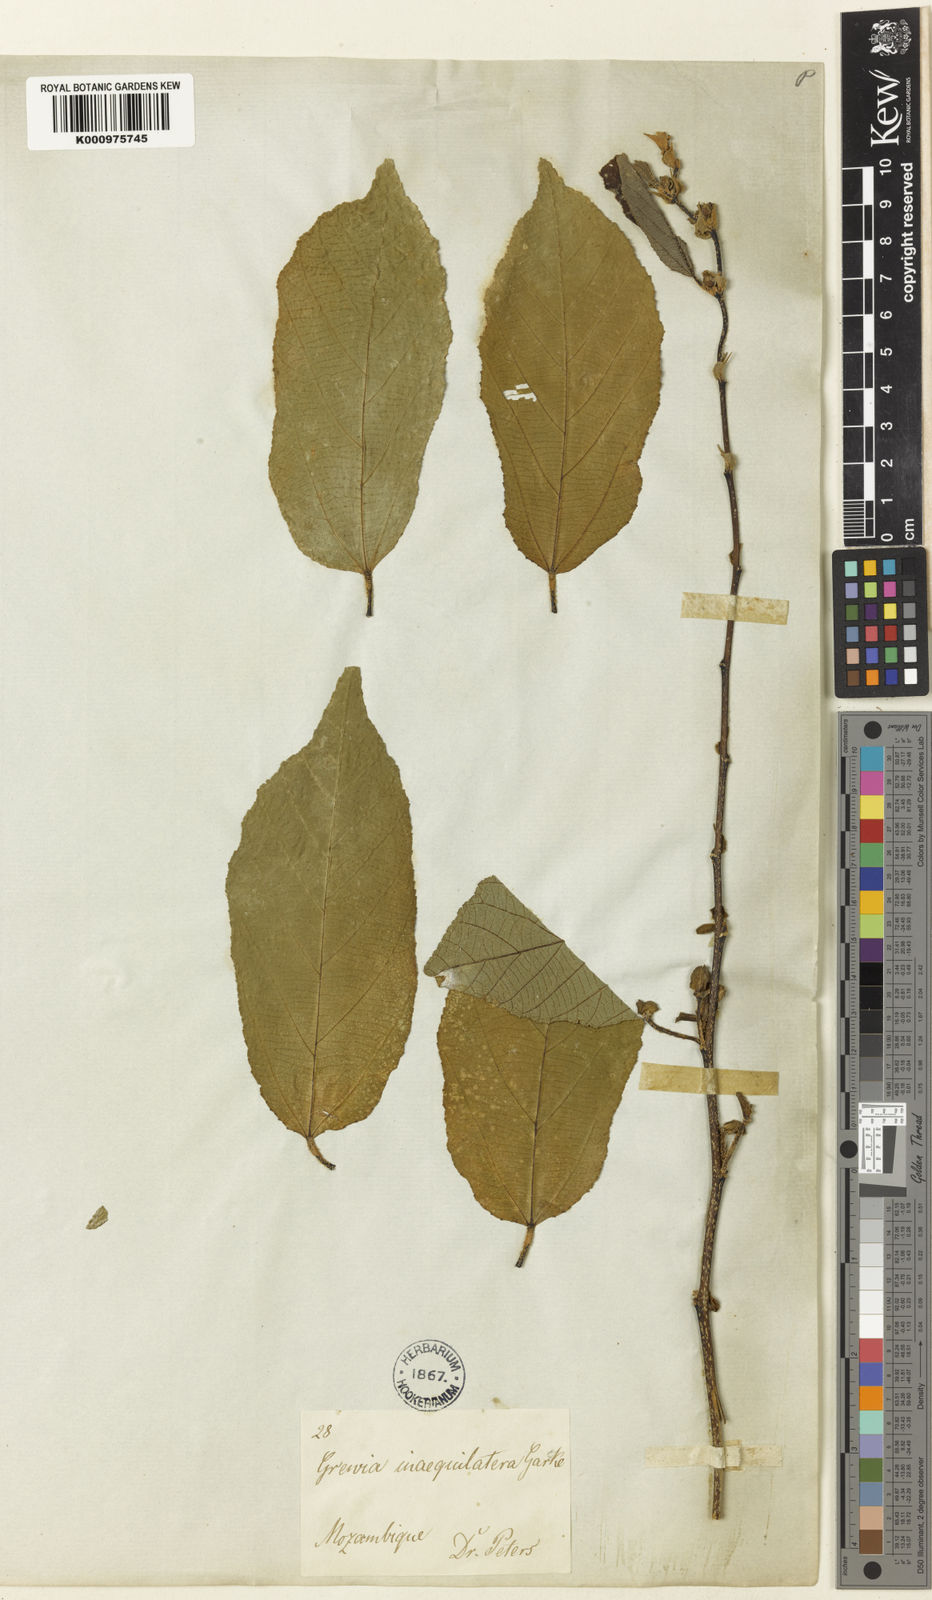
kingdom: Plantae
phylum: Tracheophyta
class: Magnoliopsida
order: Malvales
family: Malvaceae
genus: Grewia
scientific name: Grewia inaequilatera
